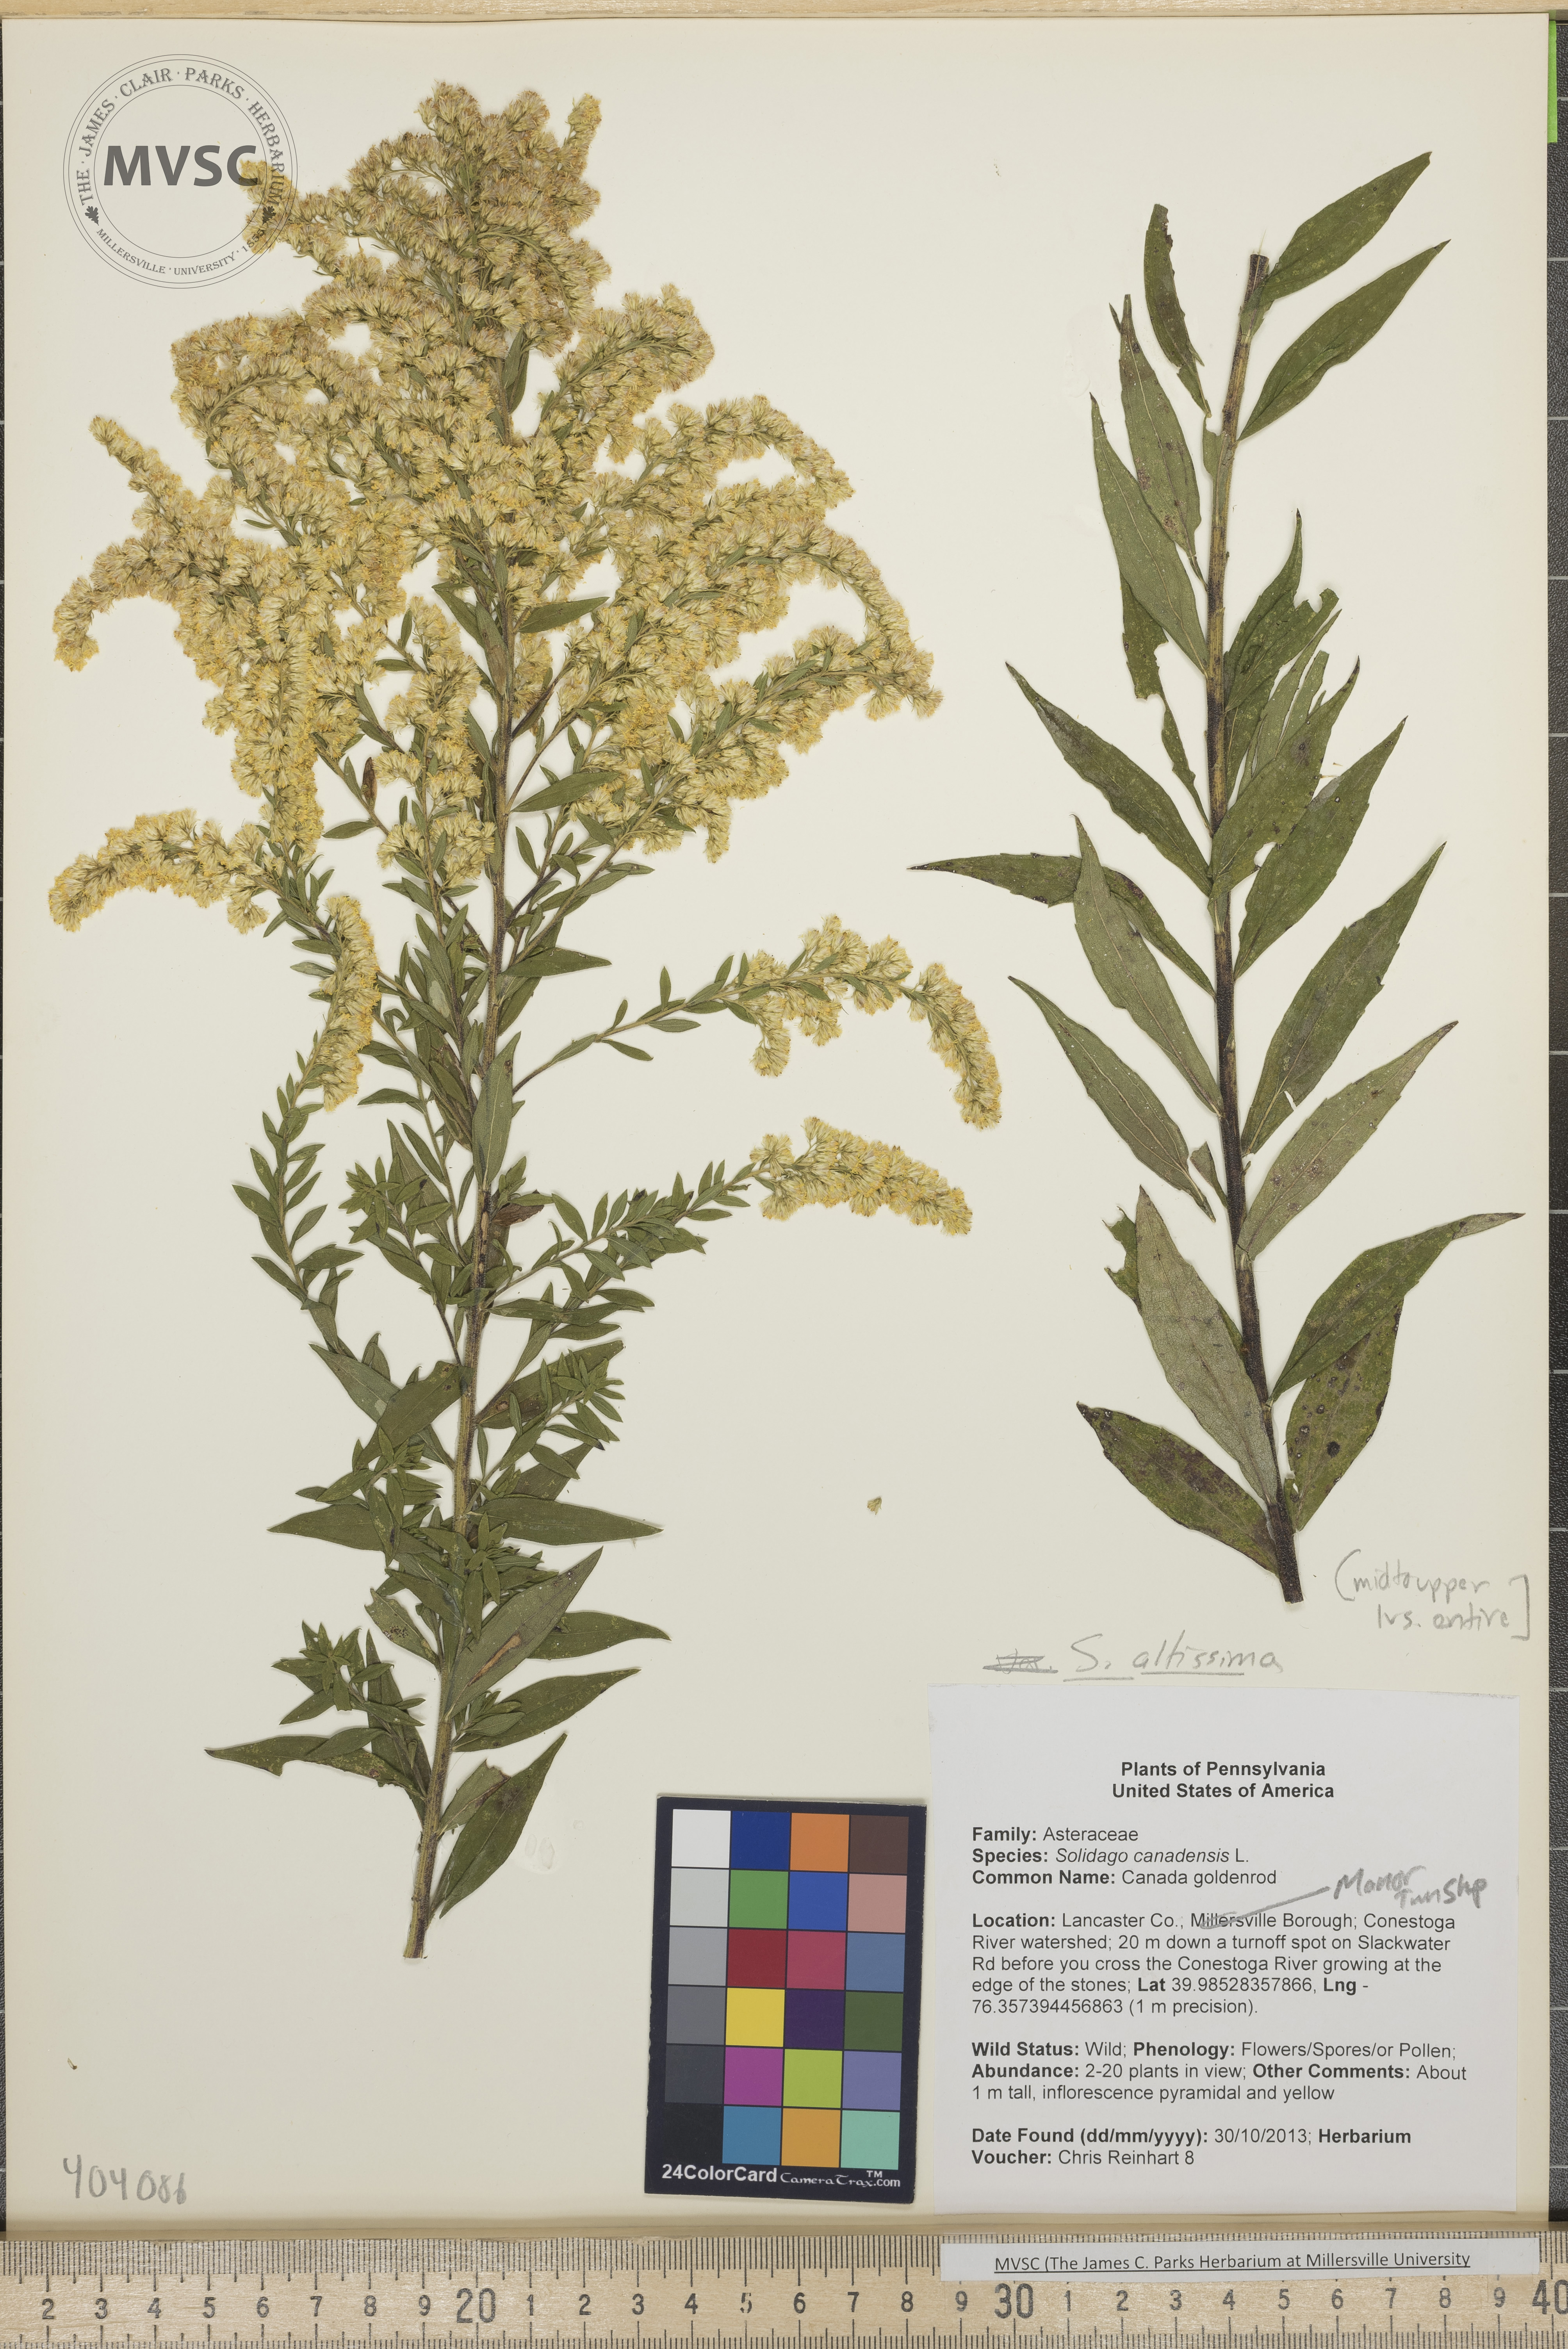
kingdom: Plantae
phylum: Tracheophyta
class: Magnoliopsida
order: Asterales
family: Asteraceae
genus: Solidago
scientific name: Solidago altissima
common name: Goldenrod
